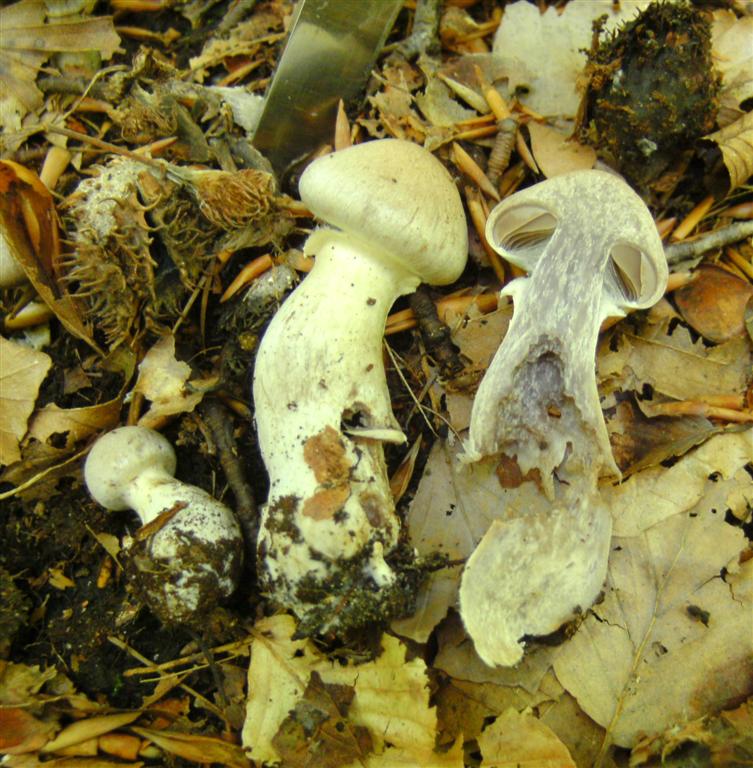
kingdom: Fungi
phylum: Basidiomycota
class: Agaricomycetes
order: Agaricales
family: Cortinariaceae
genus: Cortinarius
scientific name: Cortinarius torvus
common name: champignonagtig slørhat
